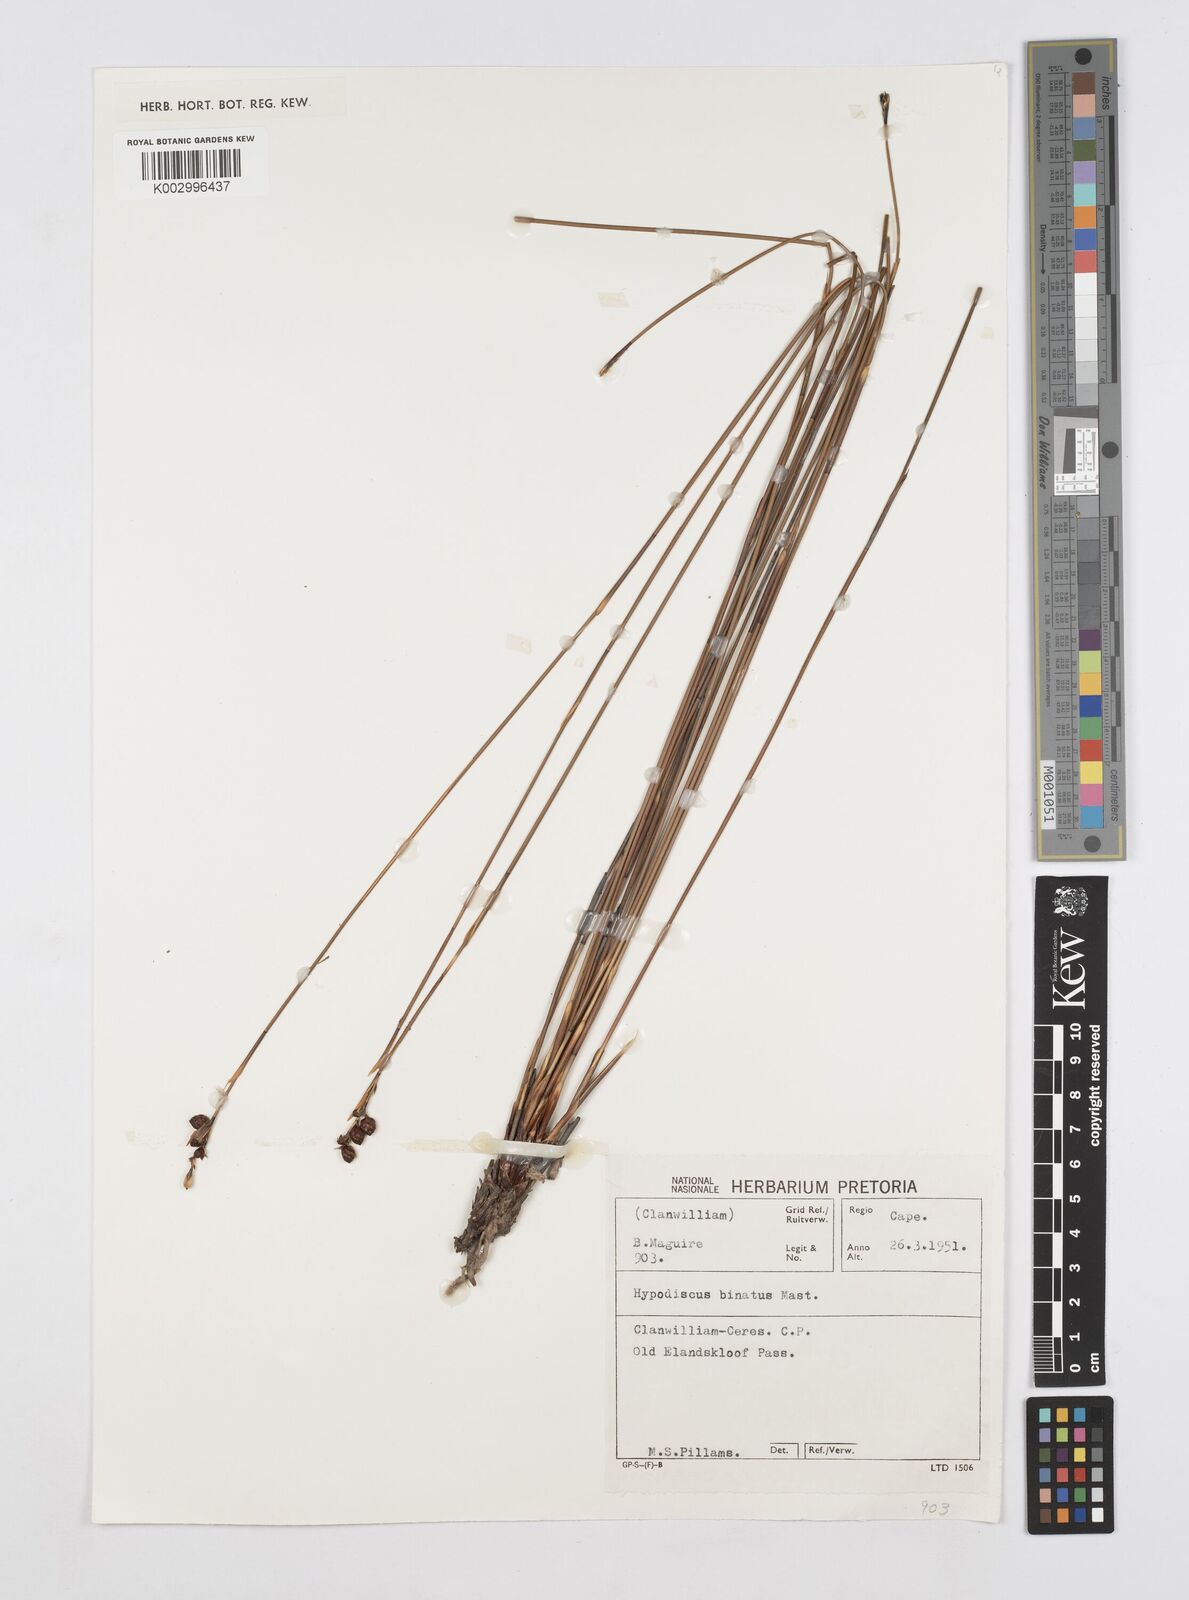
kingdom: Plantae
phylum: Tracheophyta
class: Liliopsida
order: Poales
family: Restionaceae
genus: Hypodiscus
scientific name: Hypodiscus laevigatus
